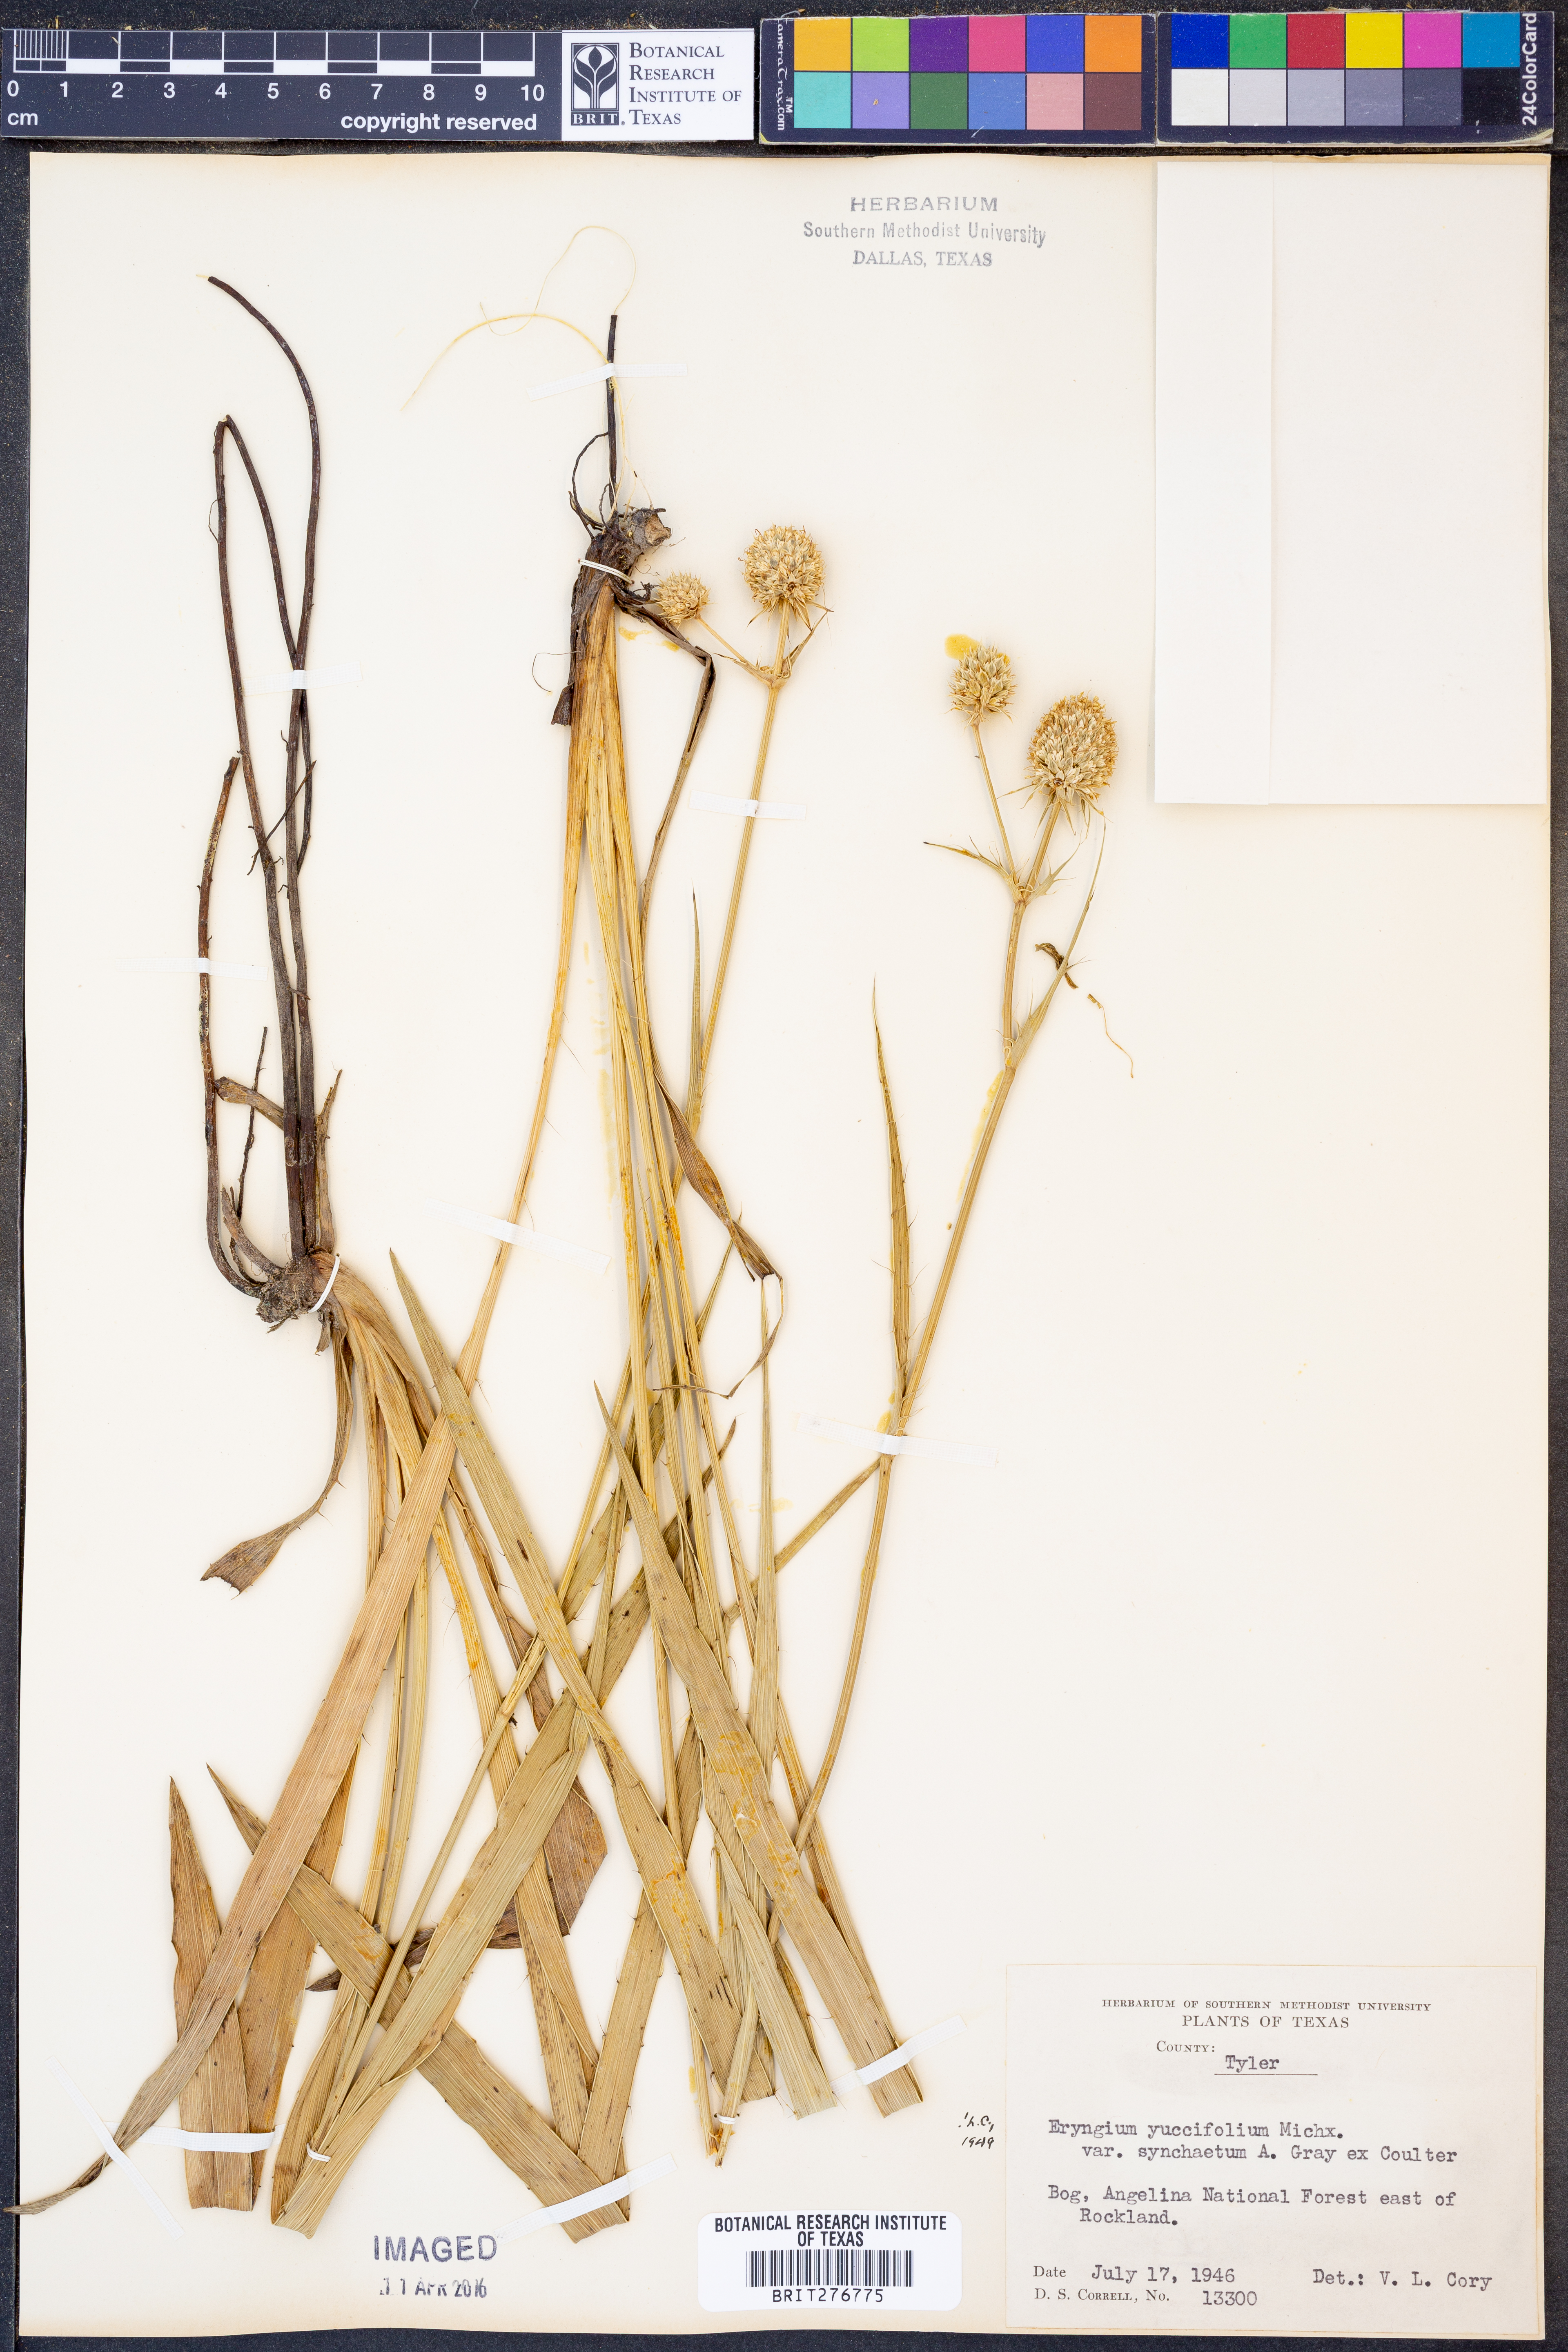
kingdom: Plantae
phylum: Tracheophyta
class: Magnoliopsida
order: Apiales
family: Apiaceae
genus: Eryngium
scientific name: Eryngium yuccifolium
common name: Button eryngo
